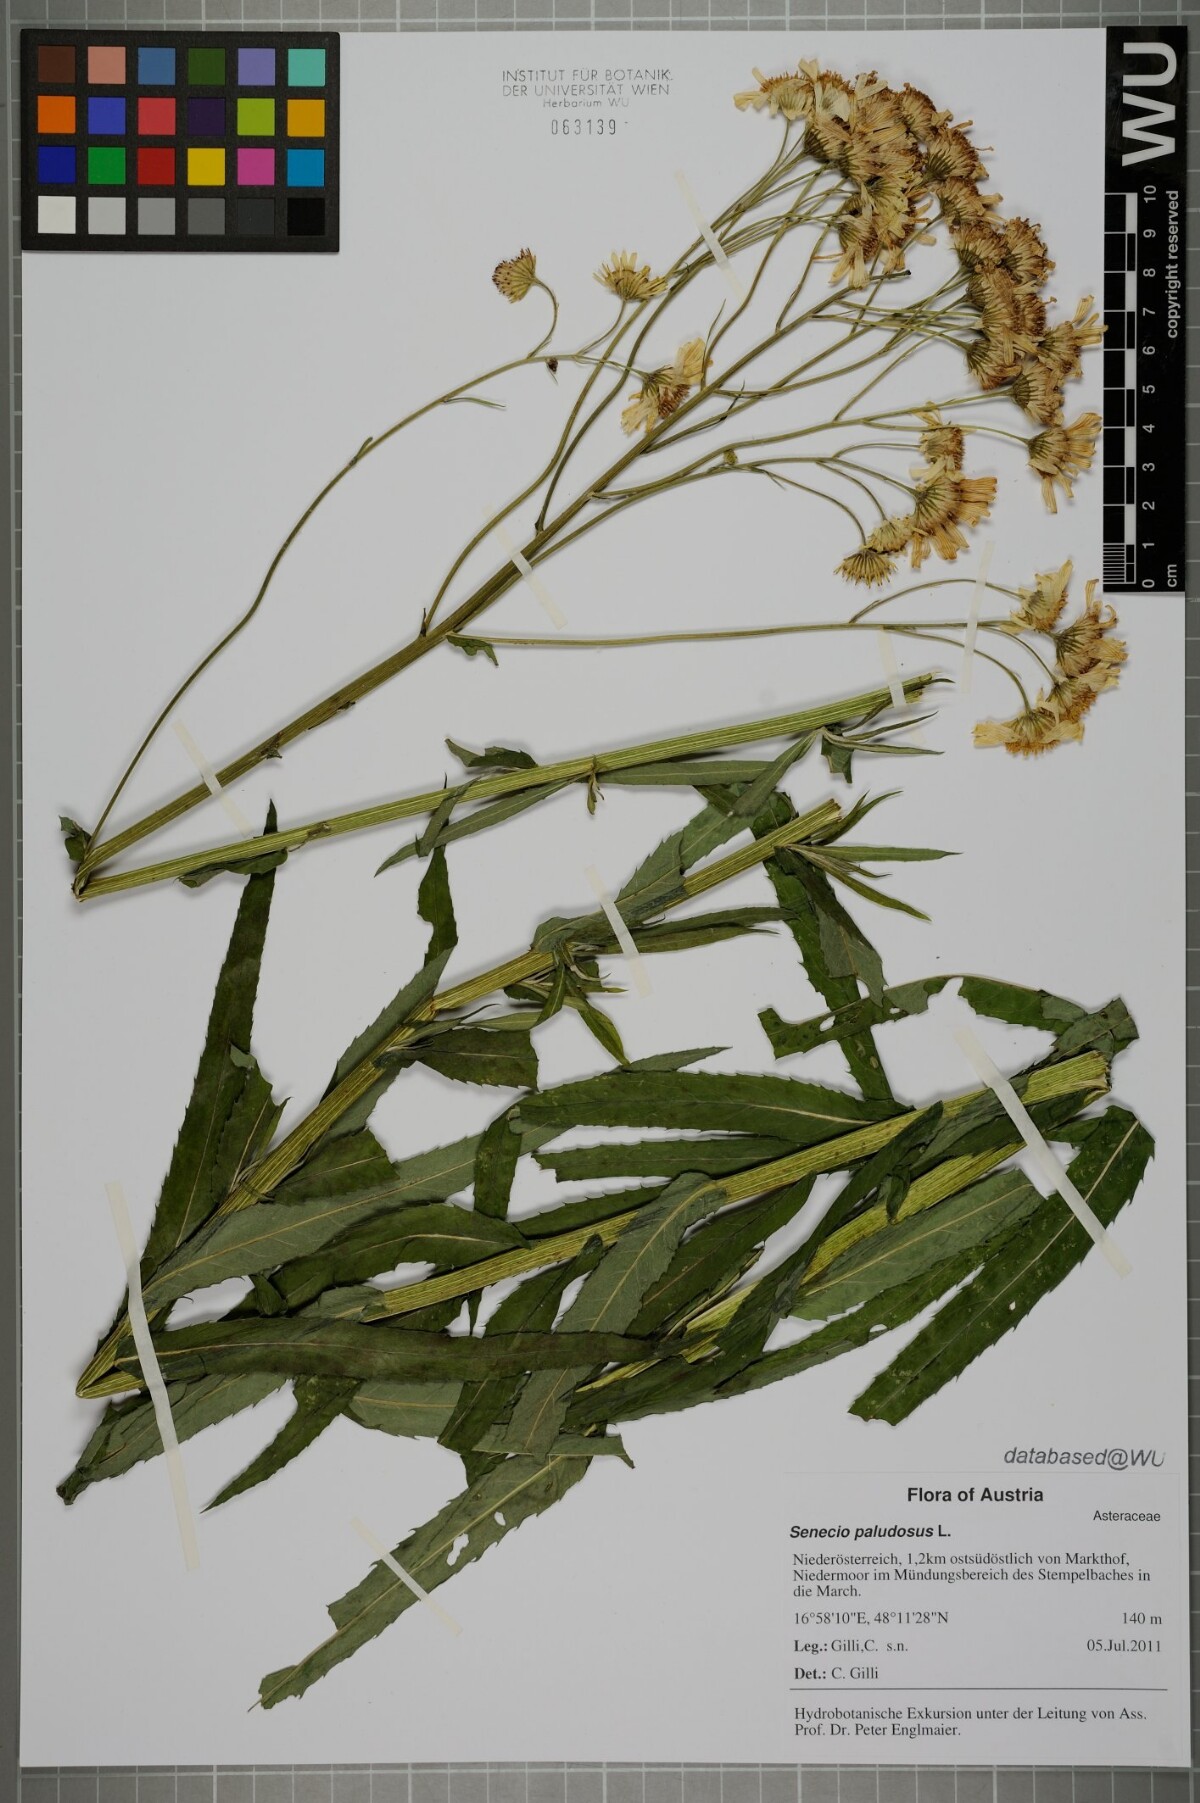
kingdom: Plantae
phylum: Tracheophyta
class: Magnoliopsida
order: Asterales
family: Asteraceae
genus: Jacobaea
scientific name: Jacobaea paludosa
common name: Fen ragwort
